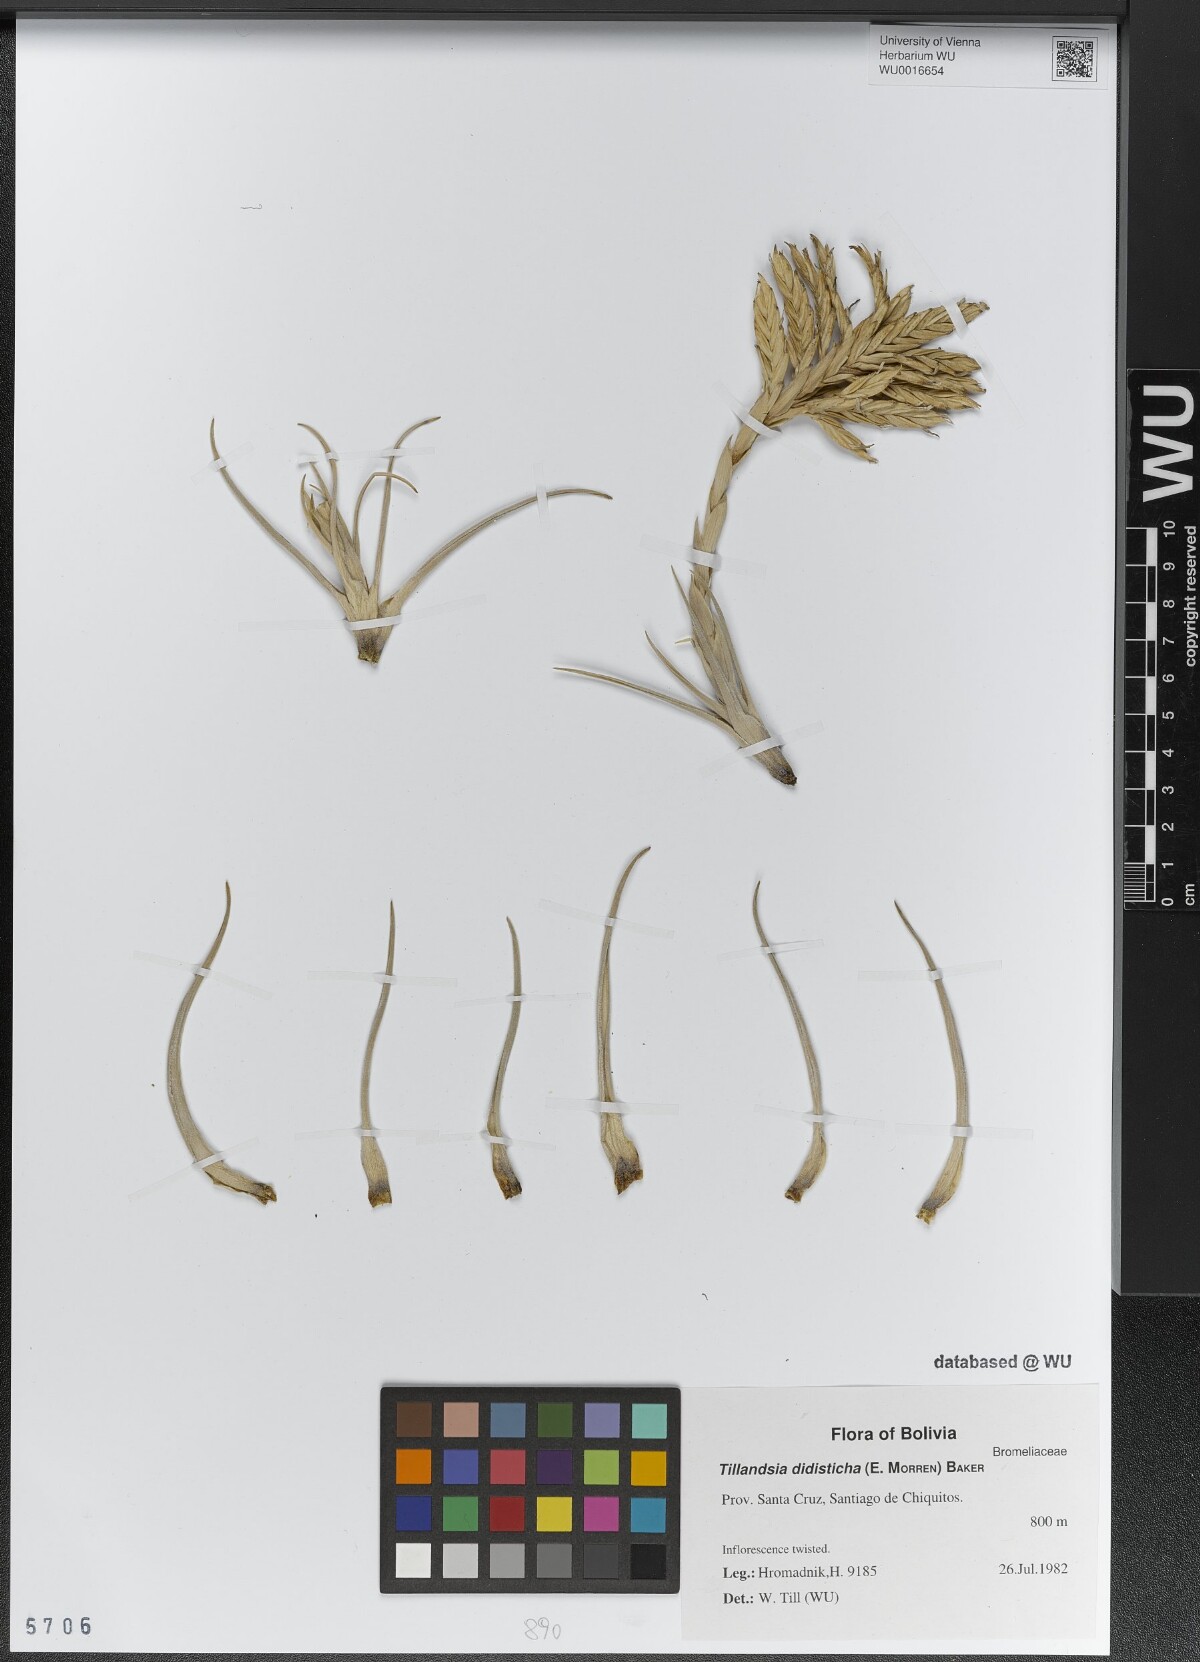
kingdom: Plantae
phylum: Tracheophyta
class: Liliopsida
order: Poales
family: Bromeliaceae
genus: Tillandsia
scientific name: Tillandsia didisticha
